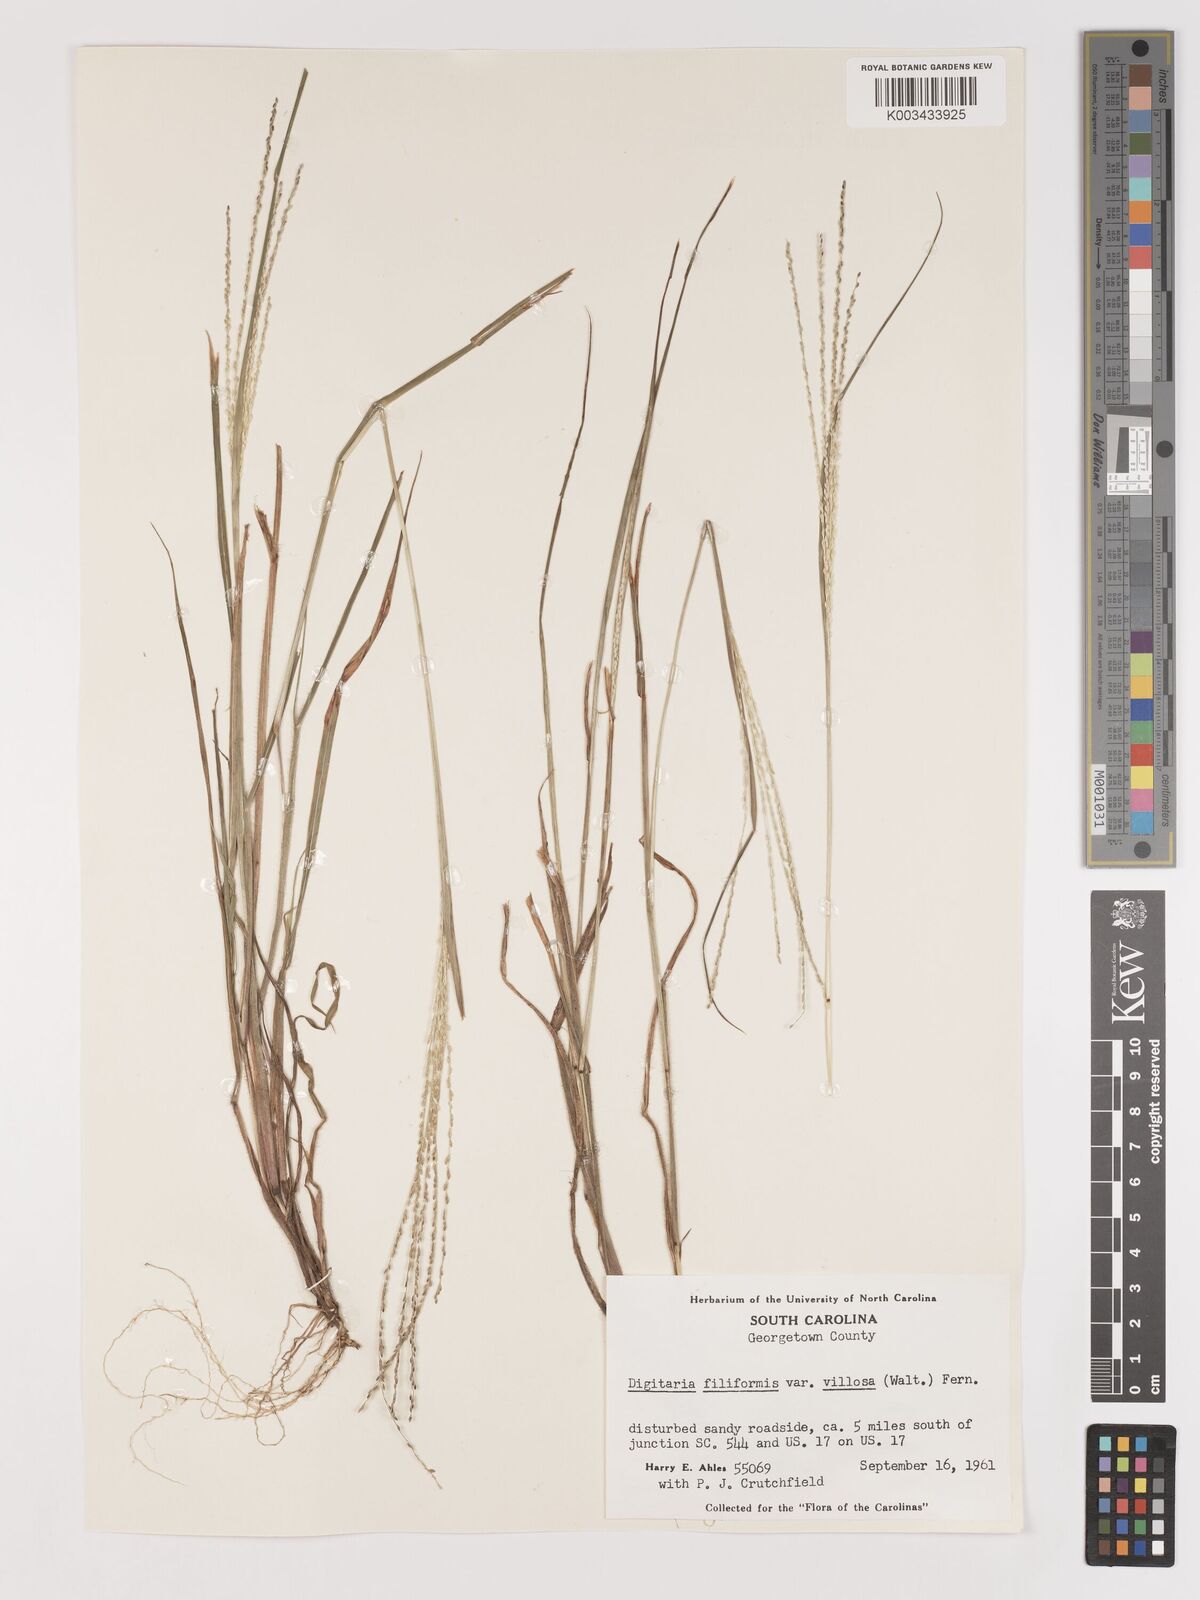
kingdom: Plantae
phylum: Tracheophyta
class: Liliopsida
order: Poales
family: Poaceae
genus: Digitaria
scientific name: Digitaria filiformis
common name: Slender crabgrass
